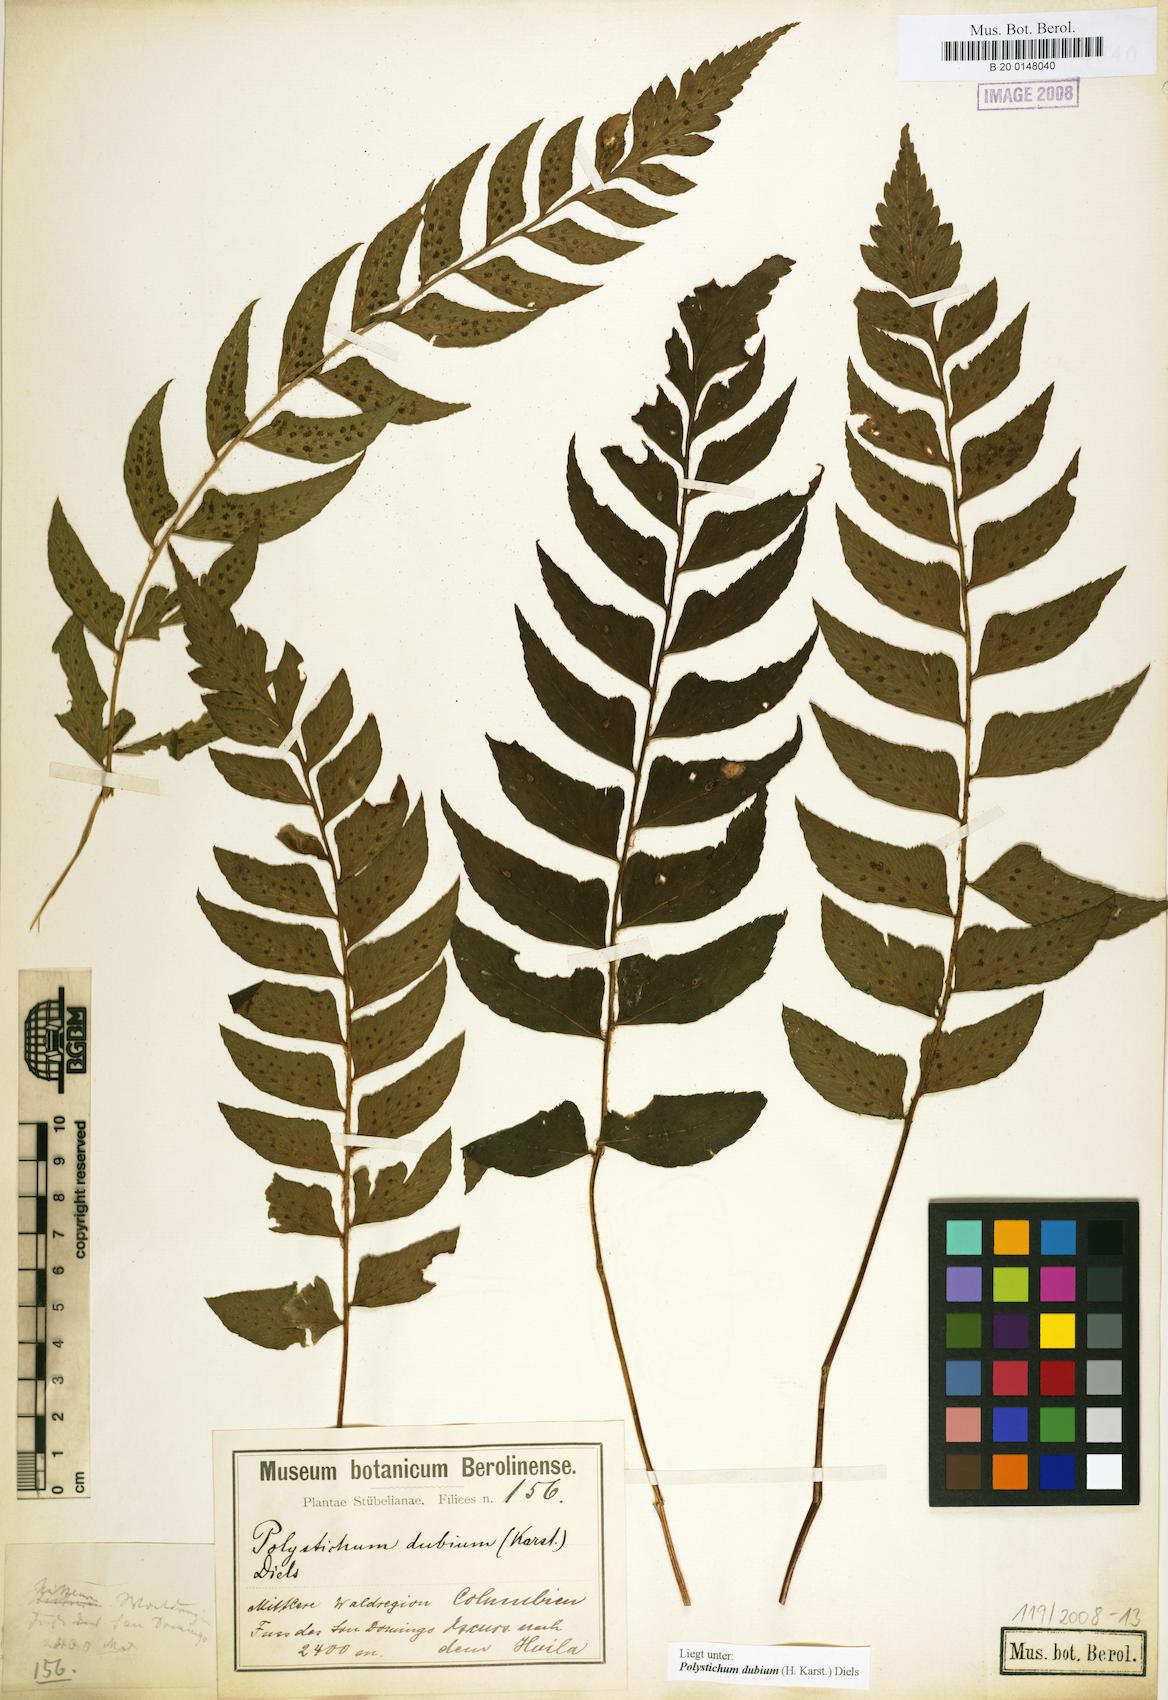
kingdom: Plantae
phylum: Tracheophyta
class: Polypodiopsida
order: Polypodiales
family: Dryopteridaceae
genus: Polystichum
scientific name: Polystichum dubium
